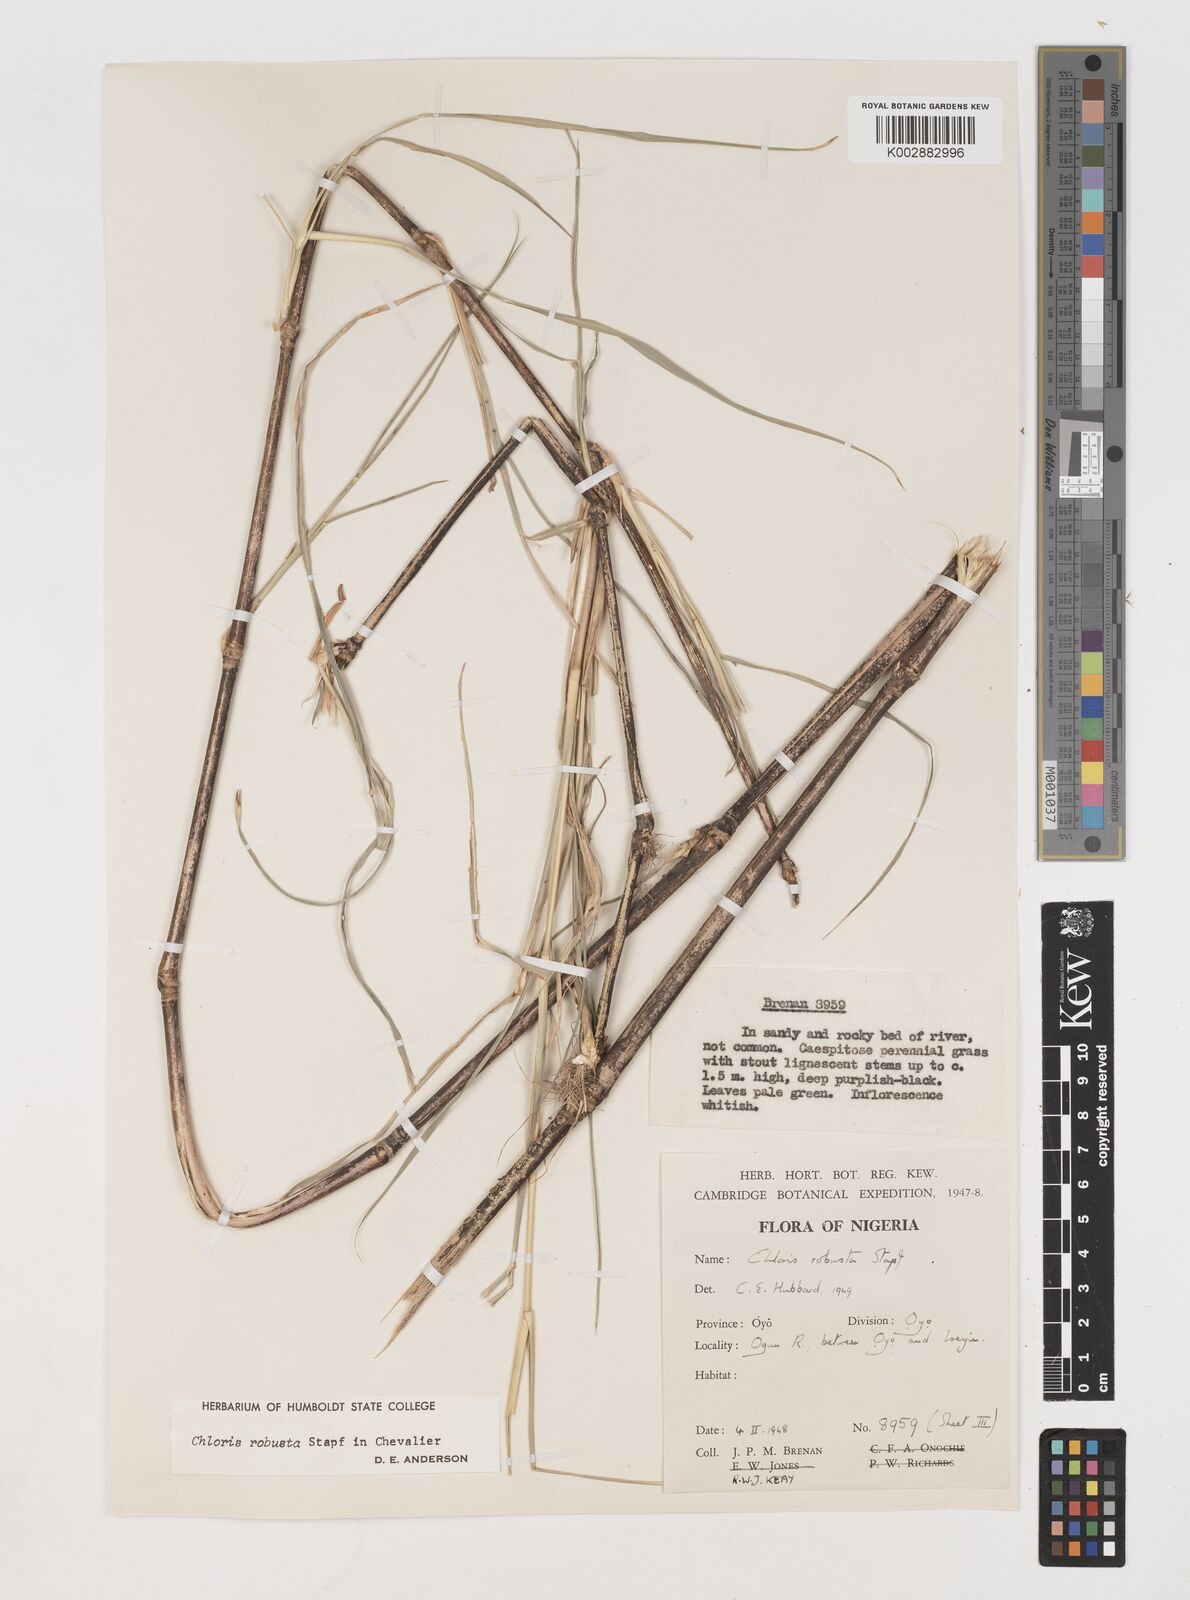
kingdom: Plantae
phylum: Tracheophyta
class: Liliopsida
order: Poales
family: Poaceae
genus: Chloris
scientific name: Chloris robusta
